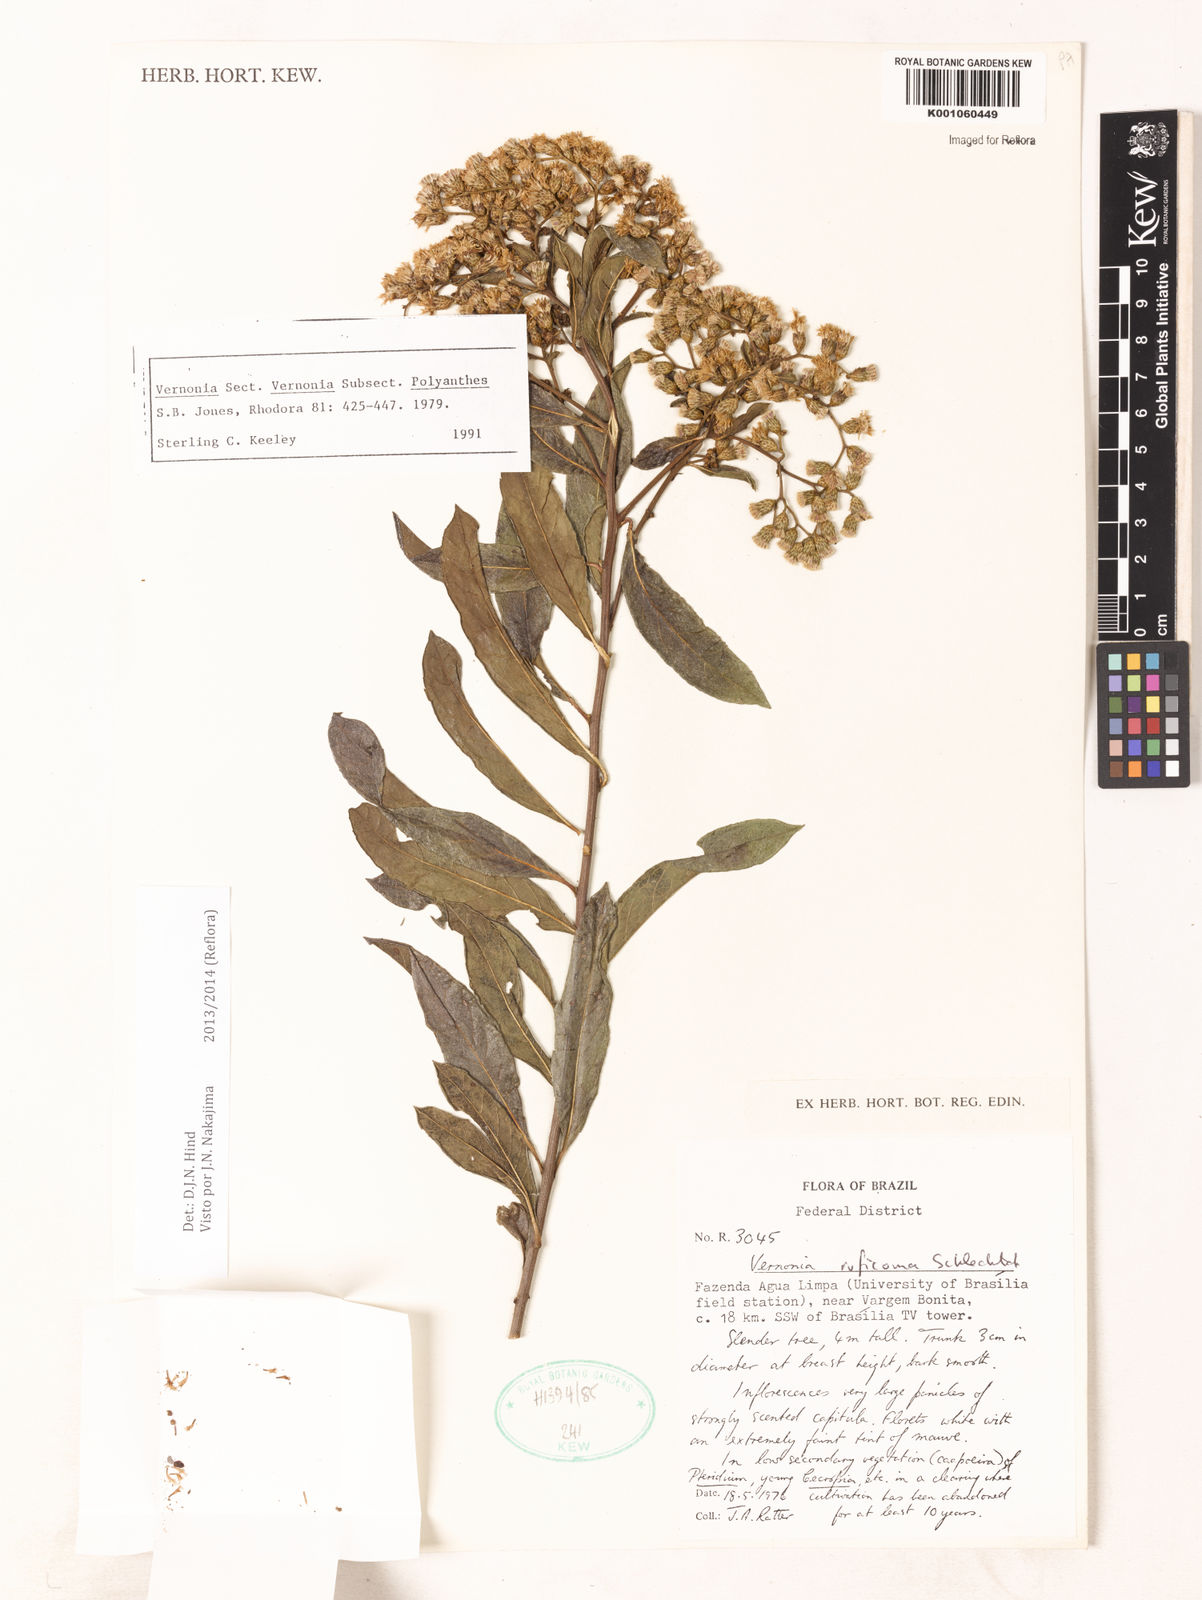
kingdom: Plantae
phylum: Tracheophyta
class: Magnoliopsida
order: Asterales
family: Asteraceae
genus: Vernonia
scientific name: Vernonia
